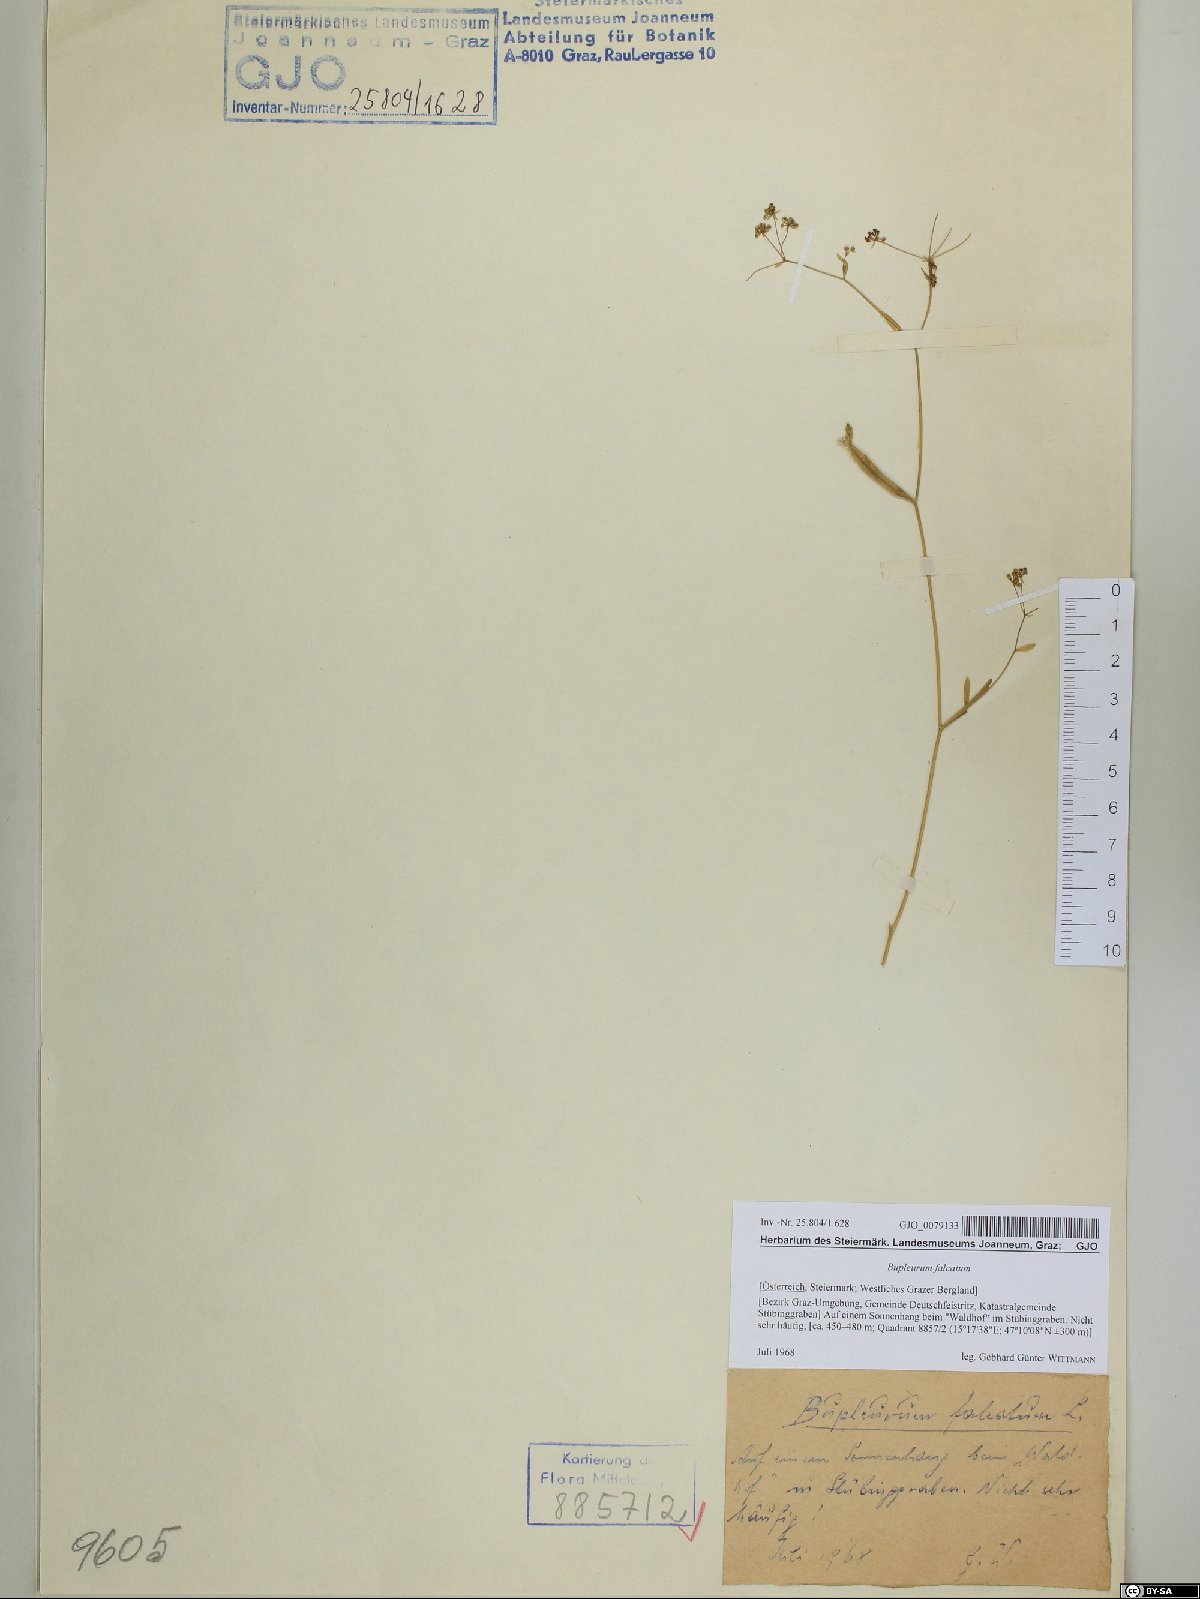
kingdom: Plantae
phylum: Tracheophyta
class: Magnoliopsida
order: Apiales
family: Apiaceae
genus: Bupleurum
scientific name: Bupleurum falcatum
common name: Sickle-leaved hare's-ear
